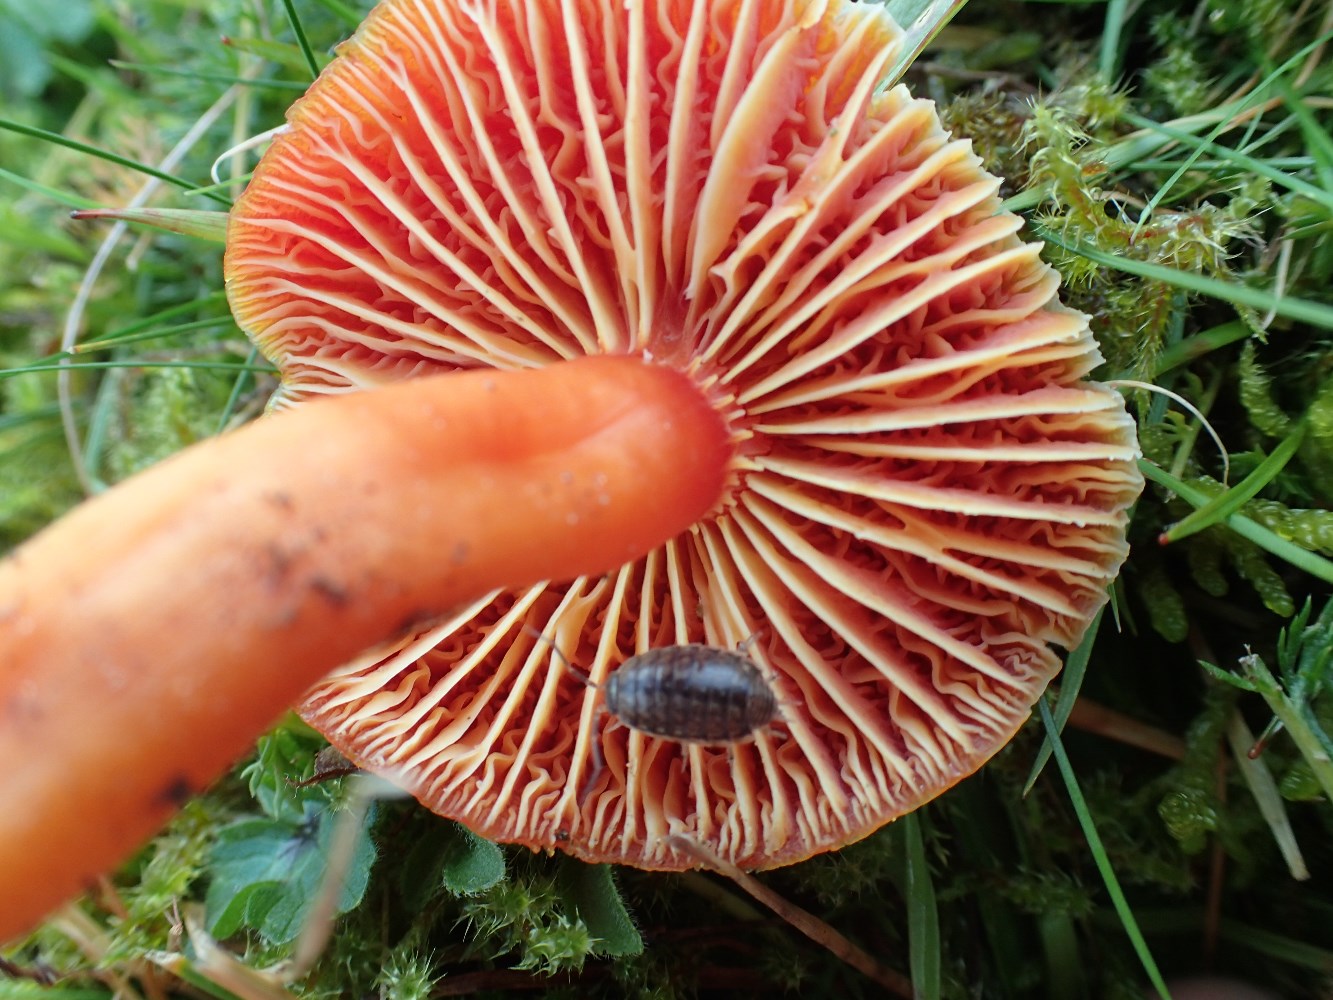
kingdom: Fungi
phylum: Basidiomycota
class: Agaricomycetes
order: Agaricales
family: Hygrophoraceae
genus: Hygrocybe
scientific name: Hygrocybe coccinea
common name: cinnober-vokshat
